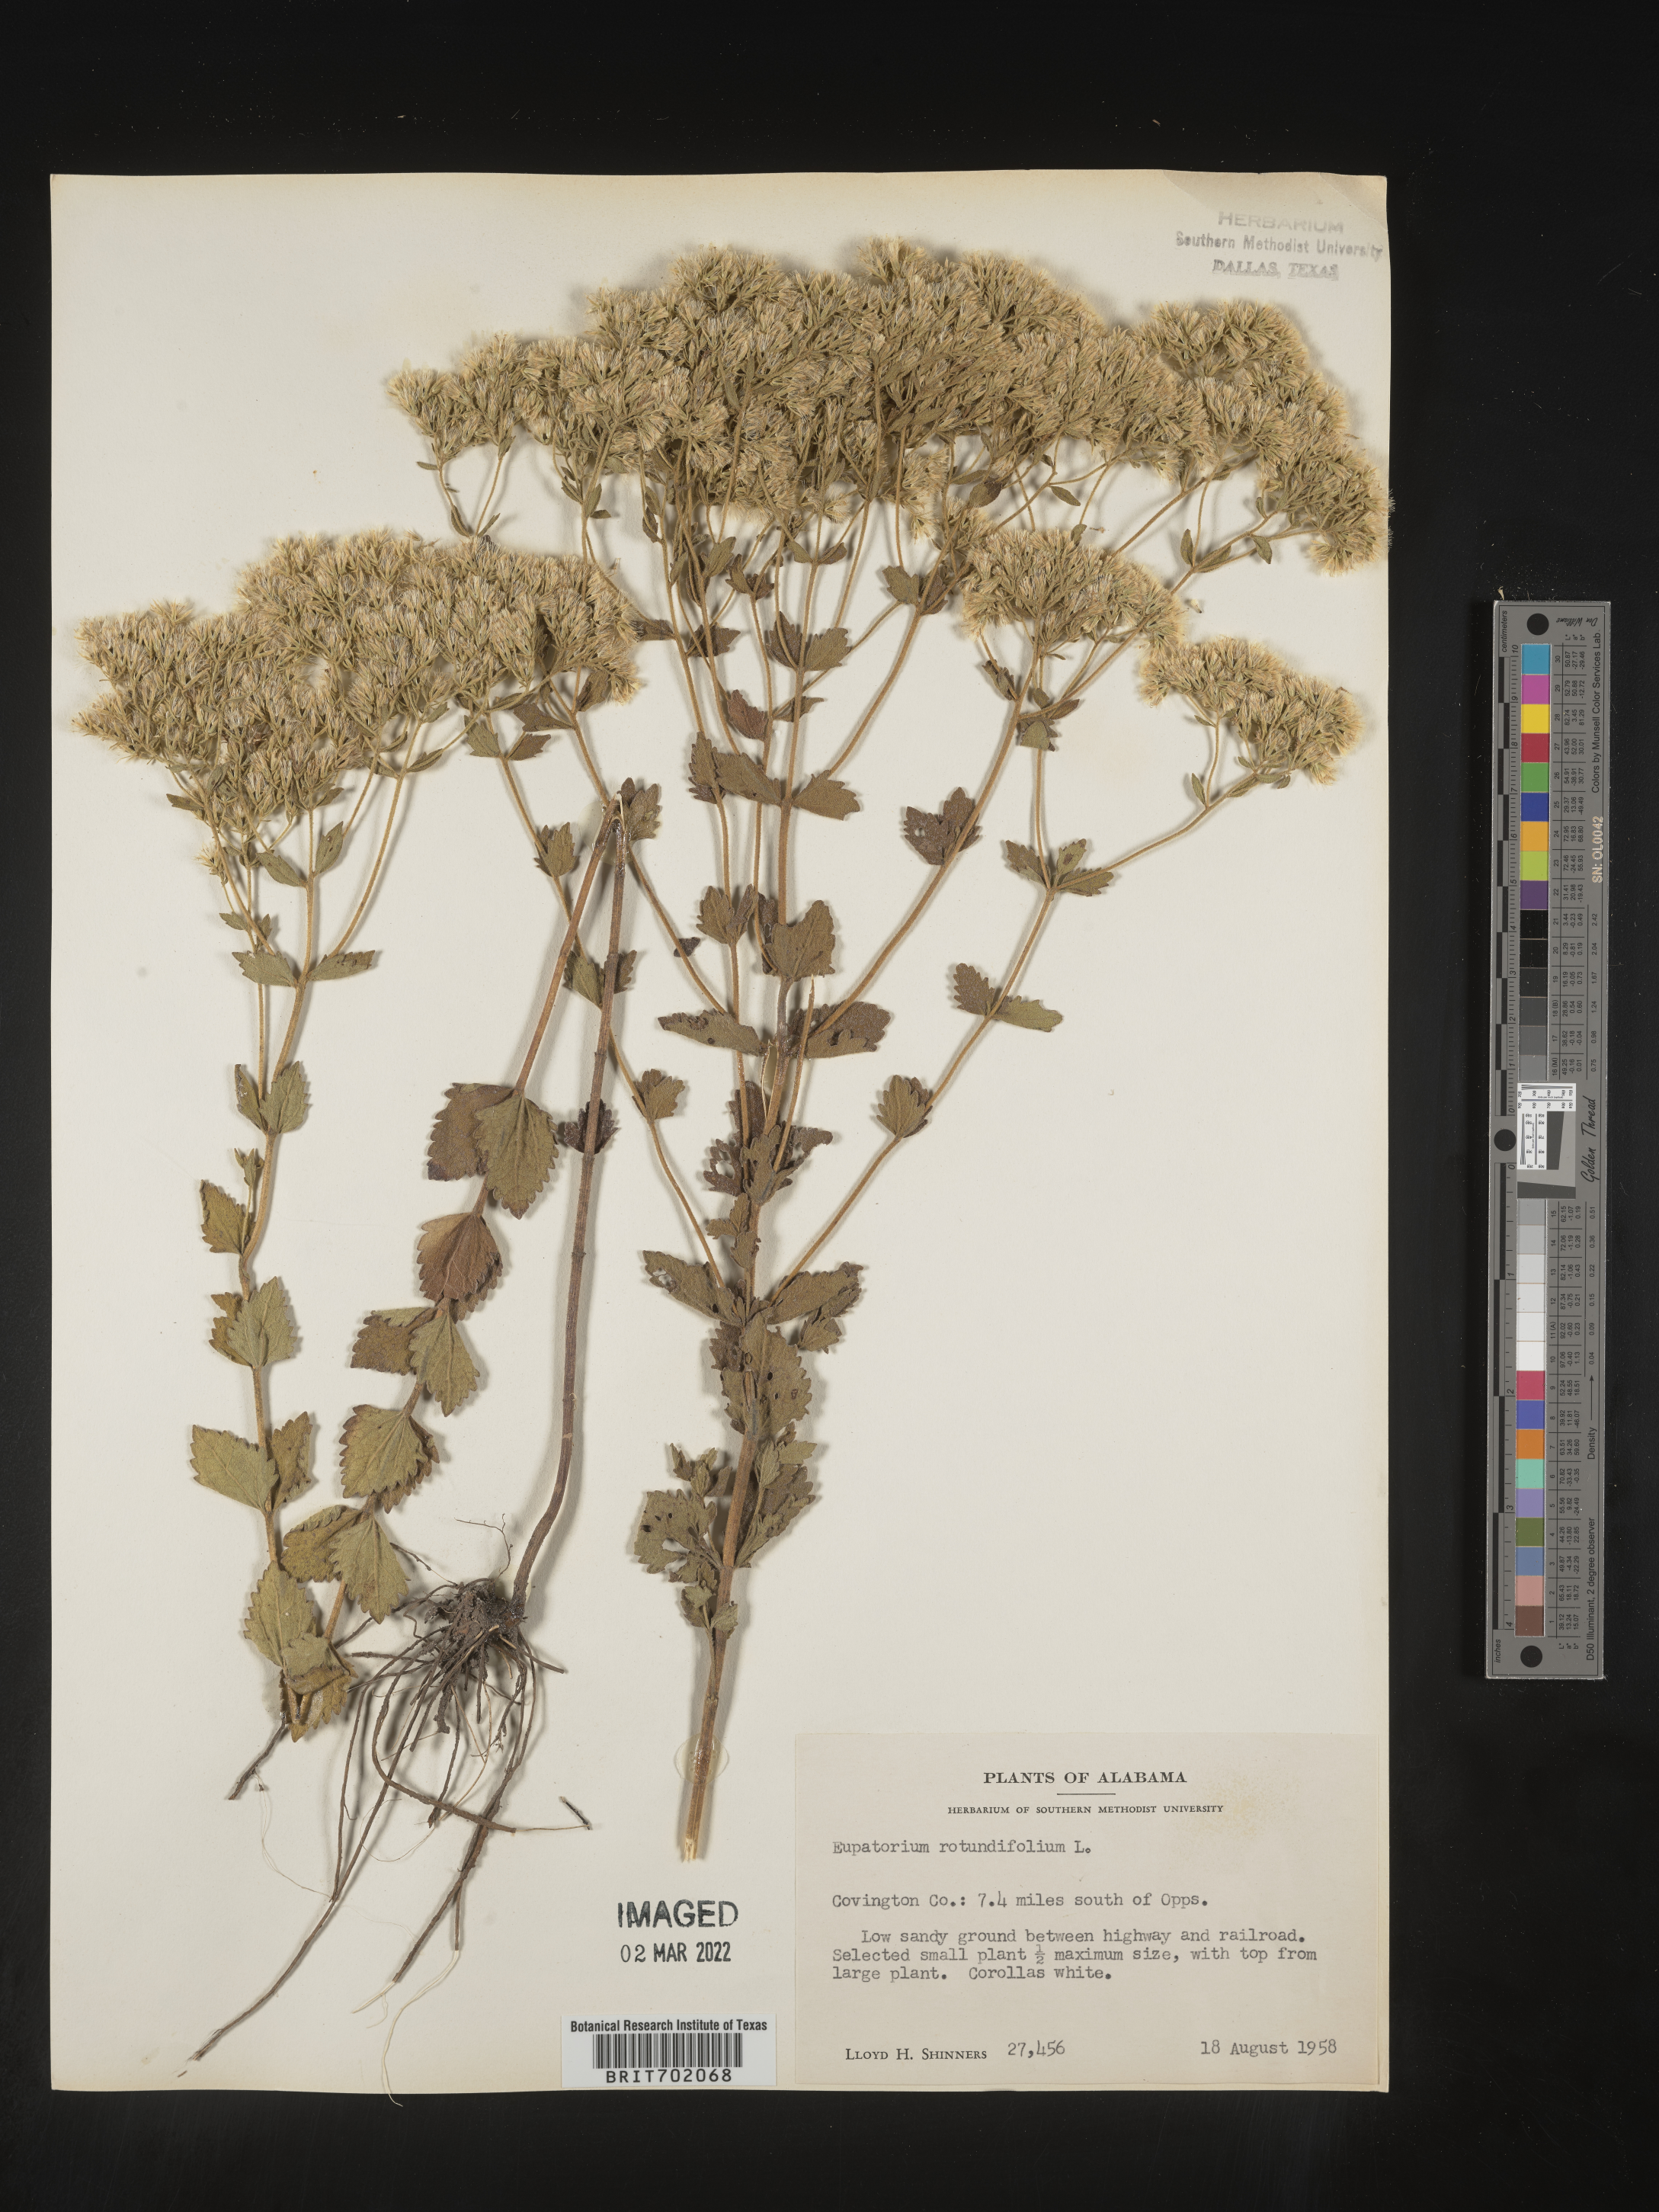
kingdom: Plantae
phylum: Tracheophyta
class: Magnoliopsida
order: Asterales
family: Asteraceae
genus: Eupatorium
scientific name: Eupatorium rotundifolium
